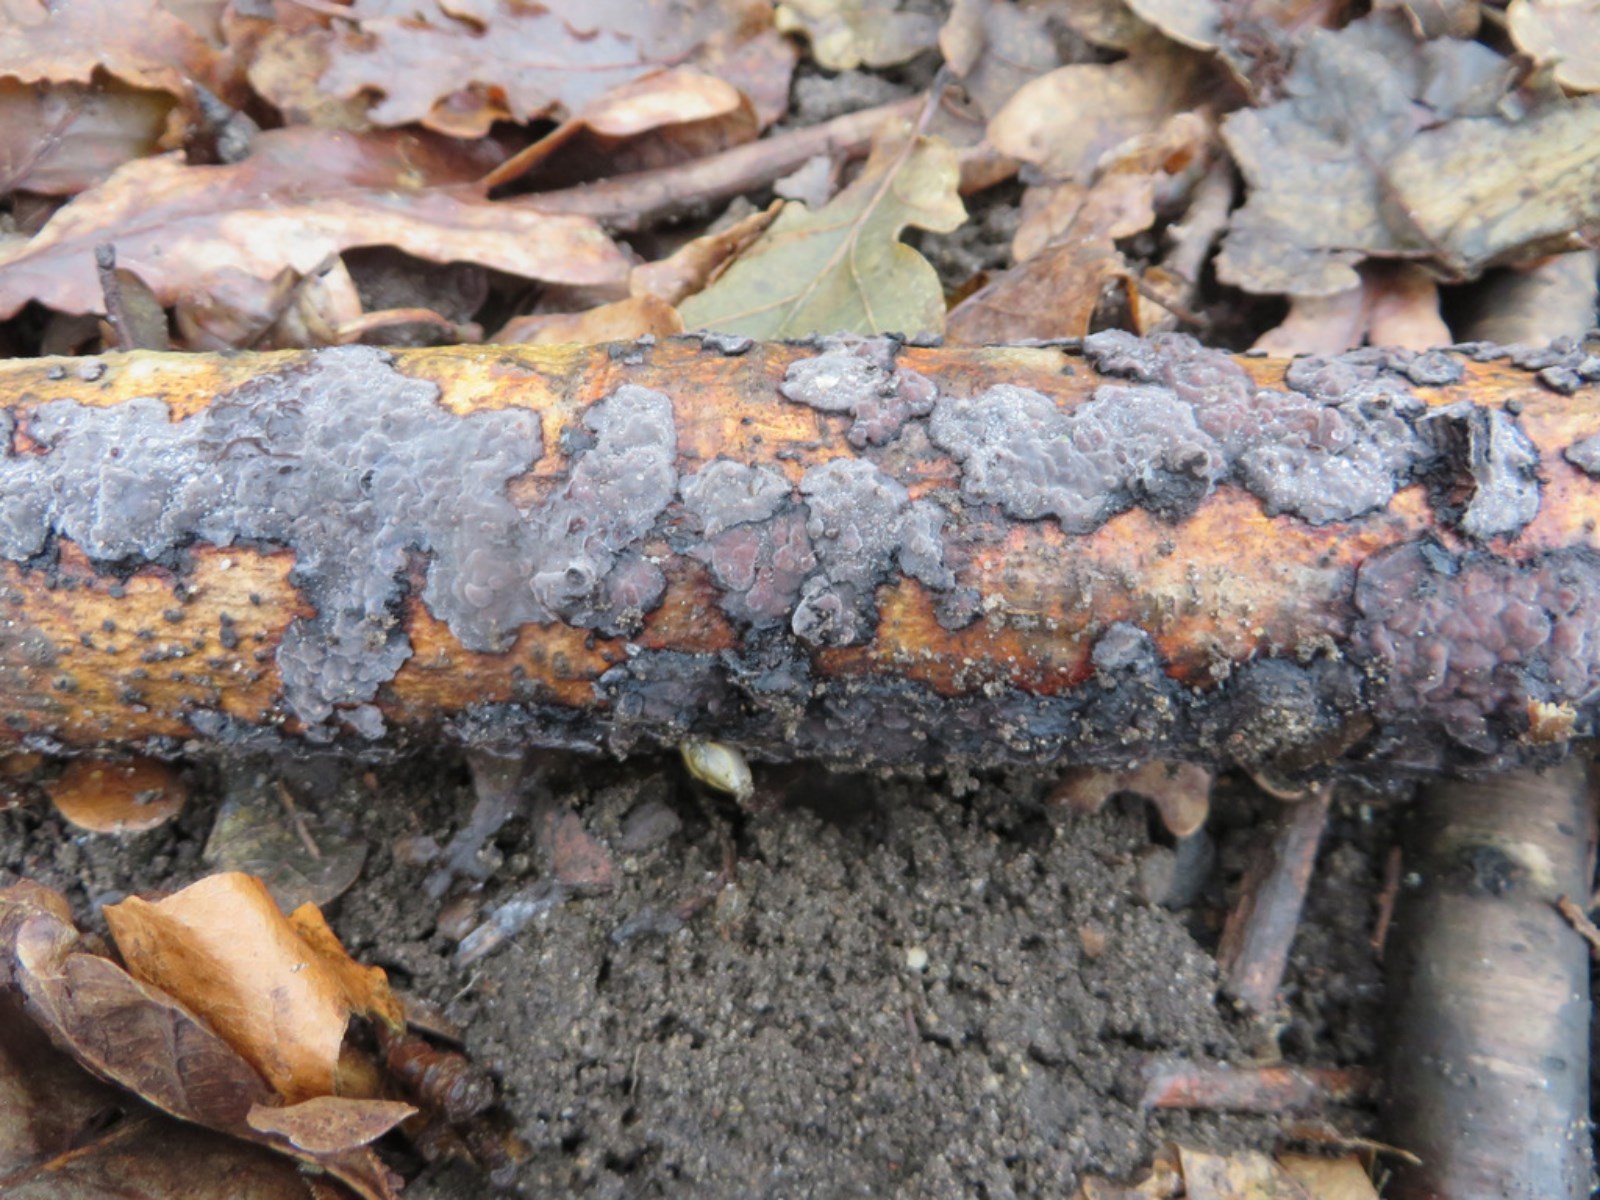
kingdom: Fungi
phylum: Basidiomycota
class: Agaricomycetes
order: Russulales
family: Peniophoraceae
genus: Peniophora
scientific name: Peniophora limitata
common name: mørkrandet voksskind
